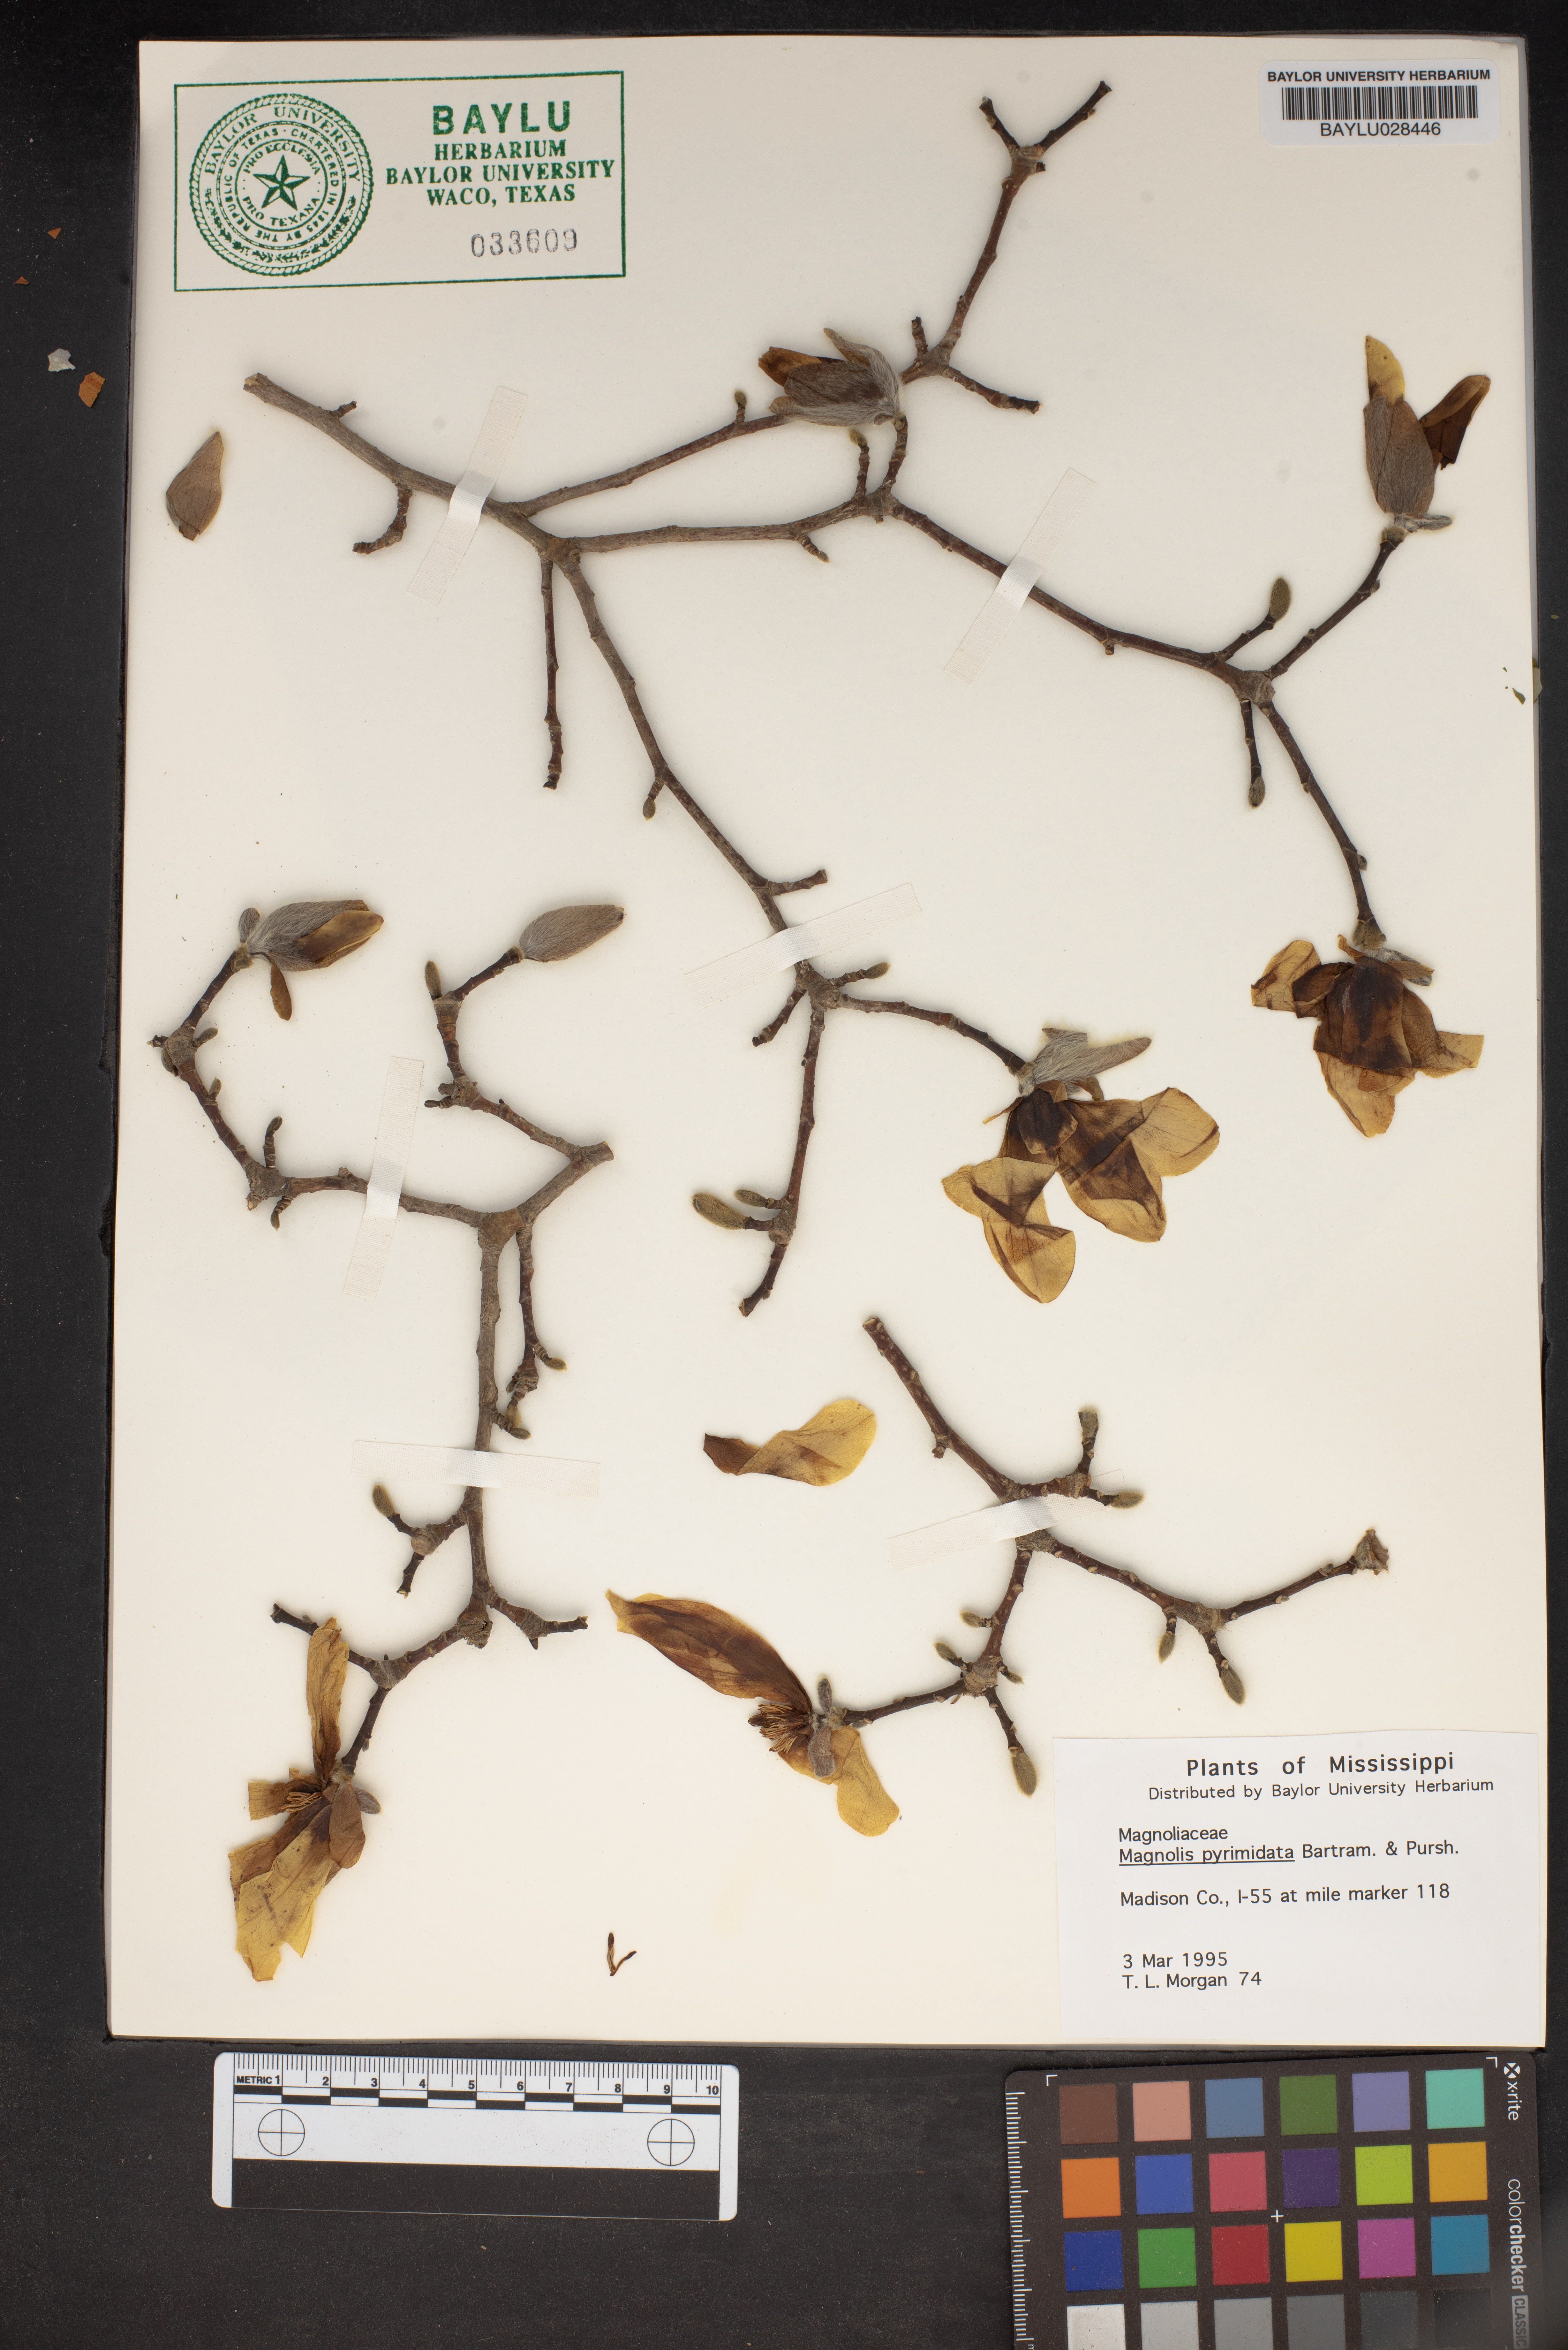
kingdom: Plantae
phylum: Tracheophyta
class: Magnoliopsida
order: Magnoliales
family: Magnoliaceae
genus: Magnolia
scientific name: Magnolia fraseri
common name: Fraser's magnolia
